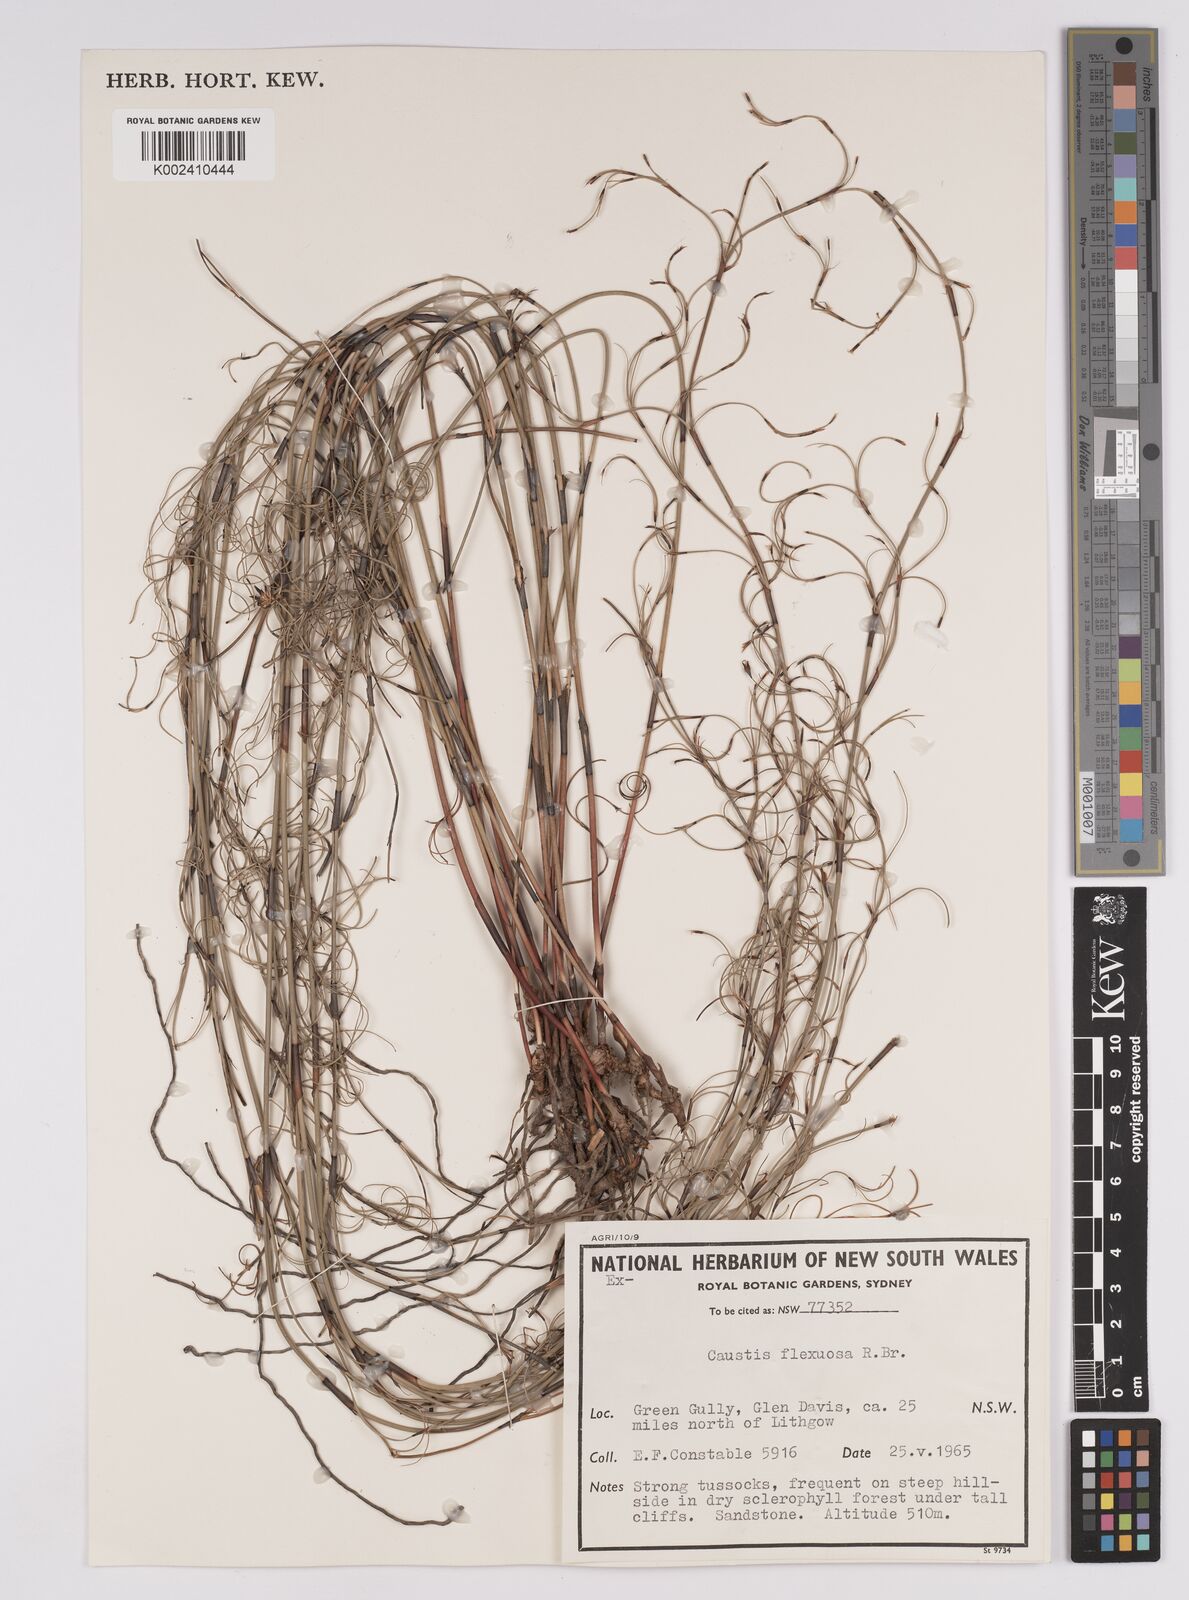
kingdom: Plantae
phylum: Tracheophyta
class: Liliopsida
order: Poales
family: Cyperaceae
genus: Caustis
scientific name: Caustis flexuosa
